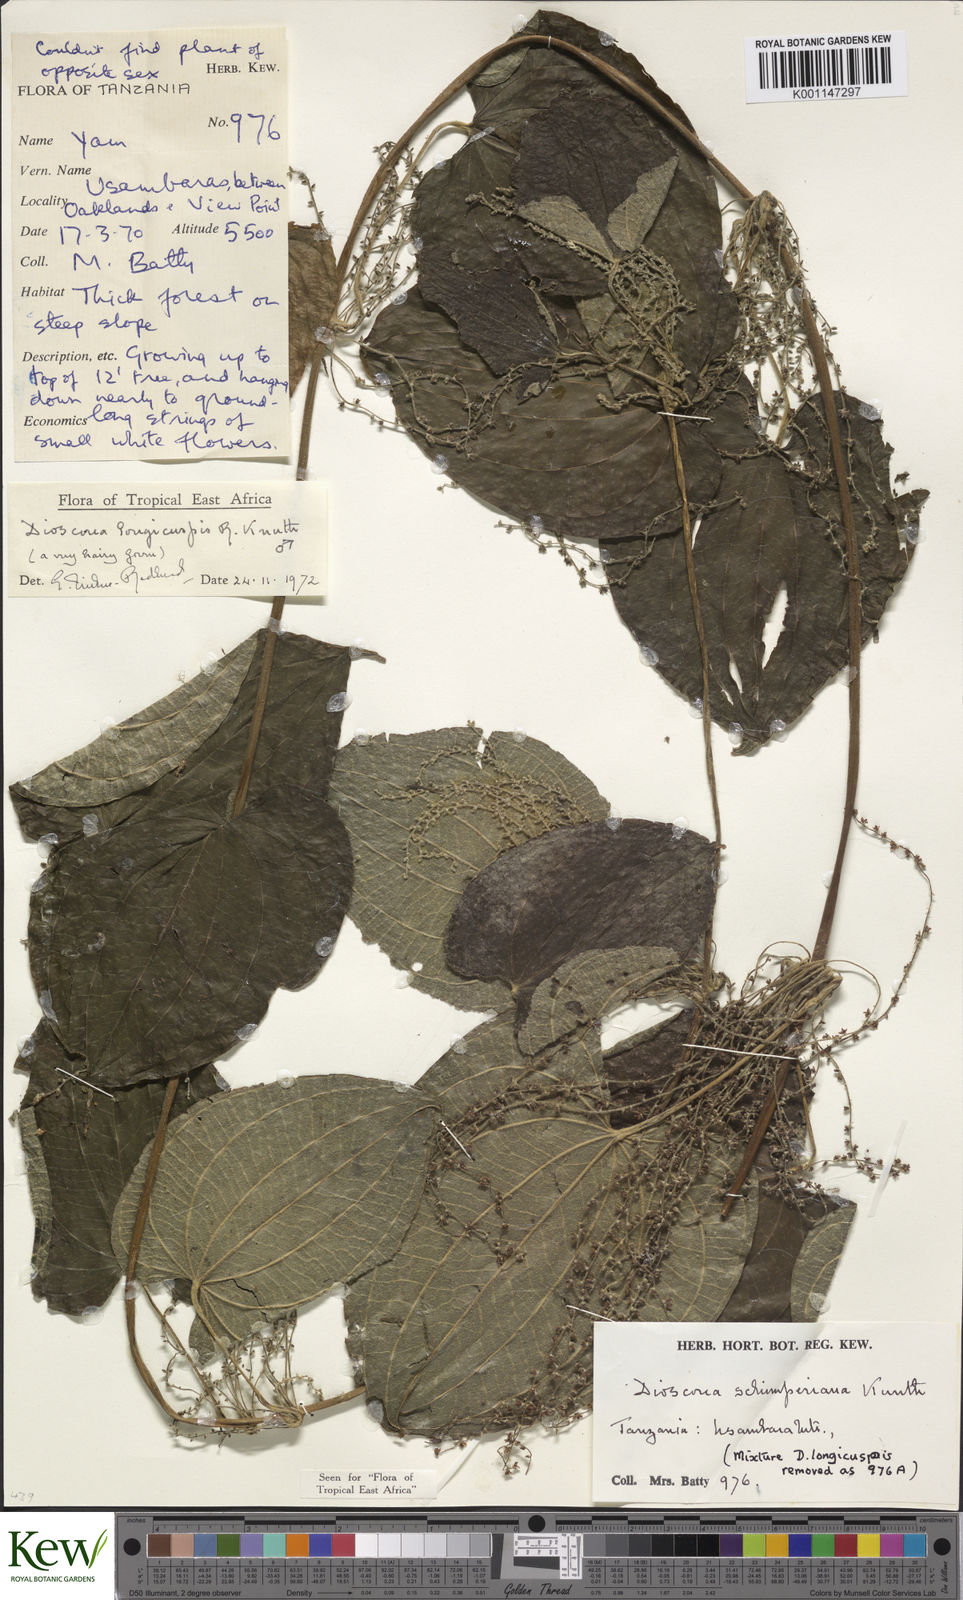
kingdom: Plantae
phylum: Tracheophyta
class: Liliopsida
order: Dioscoreales
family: Dioscoreaceae
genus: Dioscorea
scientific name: Dioscorea longicuspis
